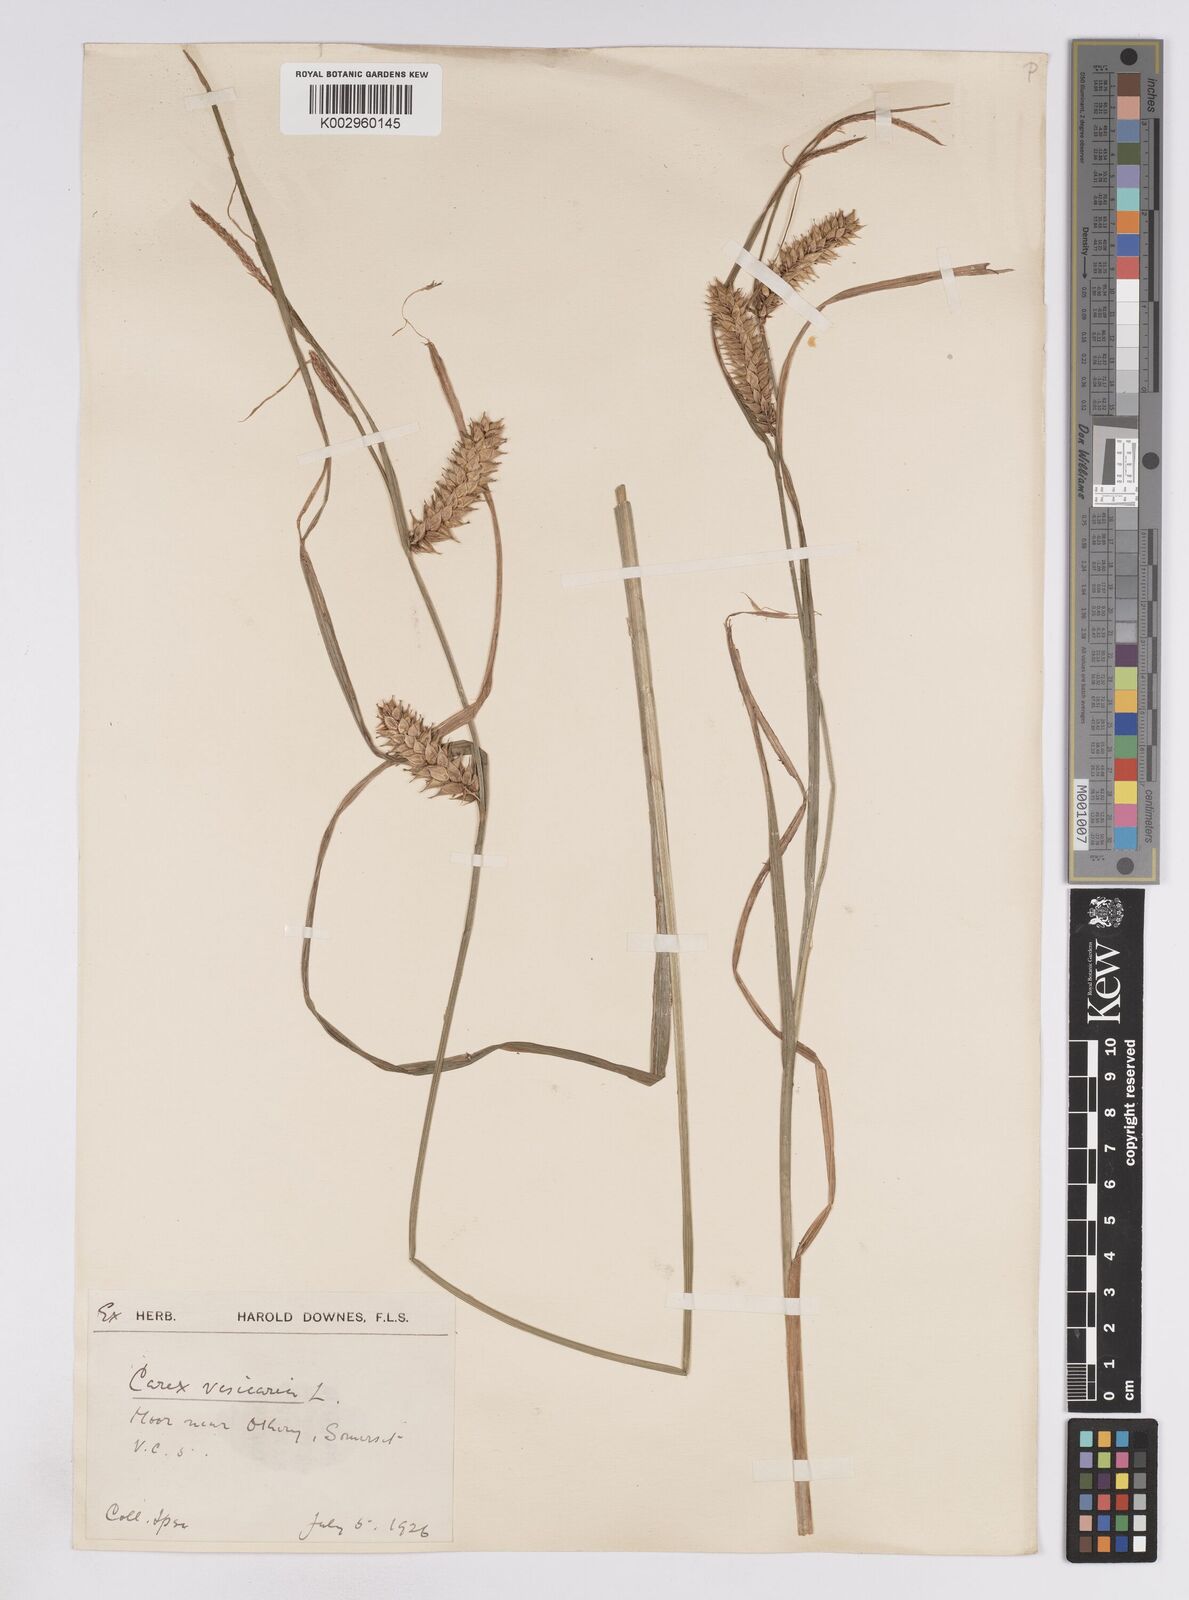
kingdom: Plantae
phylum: Tracheophyta
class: Liliopsida
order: Poales
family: Cyperaceae
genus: Carex
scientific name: Carex vesicaria
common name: Bladder-sedge
